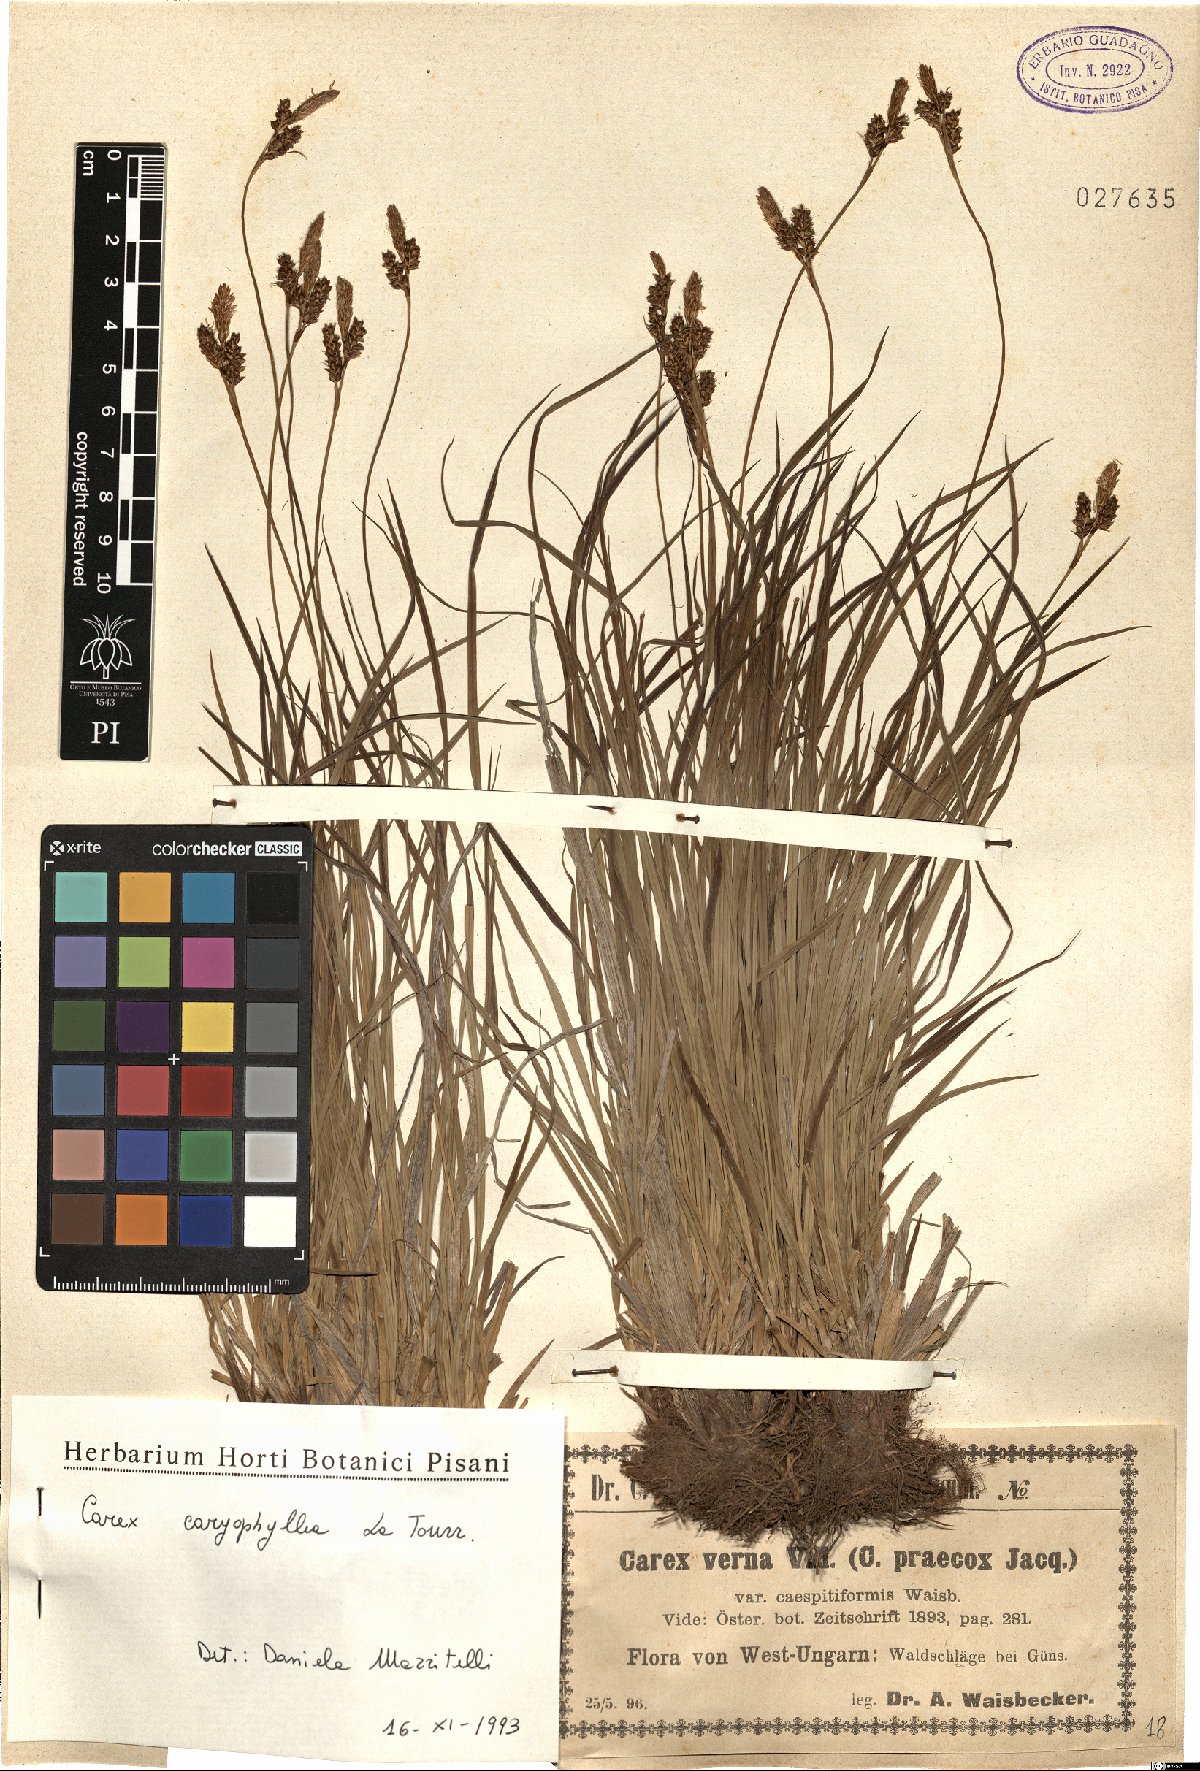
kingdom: Plantae
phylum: Tracheophyta
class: Liliopsida
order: Poales
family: Cyperaceae
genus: Carex
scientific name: Carex caryophyllea
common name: Spring sedge
